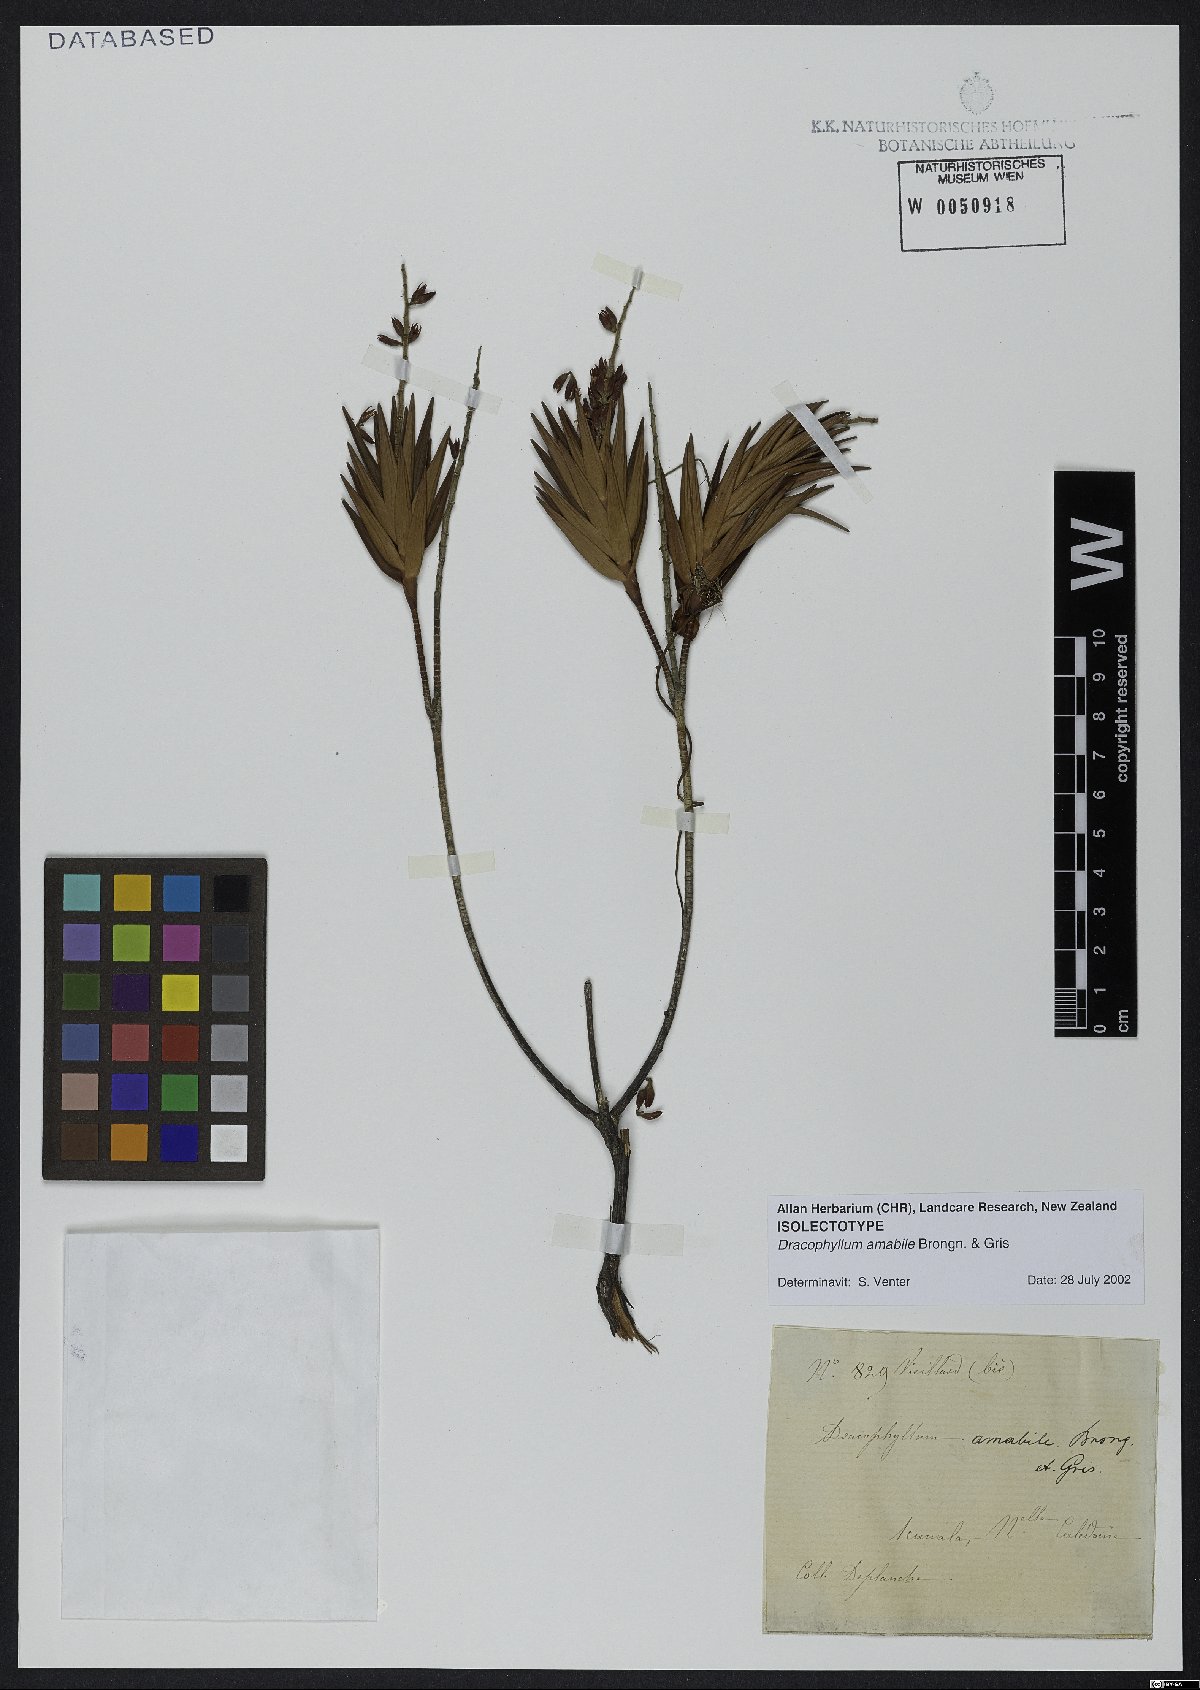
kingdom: Plantae
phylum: Tracheophyta
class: Magnoliopsida
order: Ericales
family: Ericaceae
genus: Dracophyllum
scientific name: Dracophyllum ramosum
